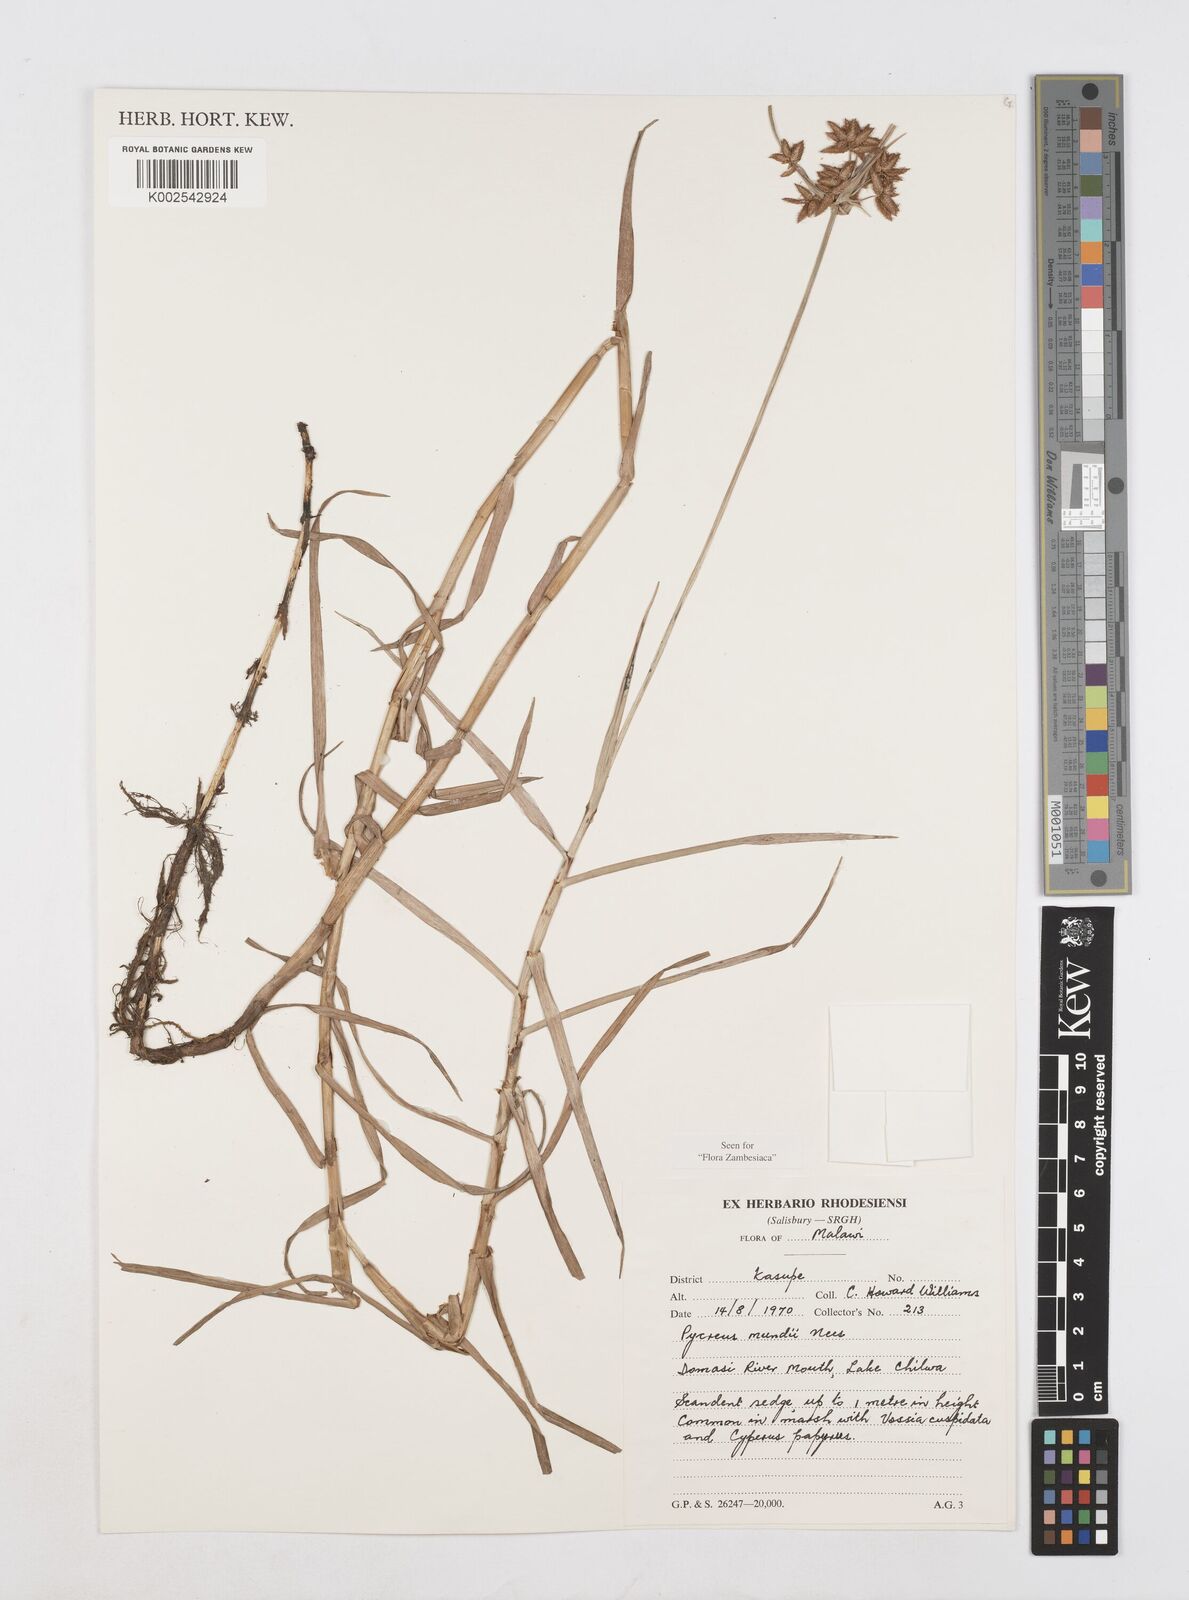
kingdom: Plantae
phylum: Tracheophyta
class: Liliopsida
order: Poales
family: Cyperaceae
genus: Cyperus
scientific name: Cyperus mundii
